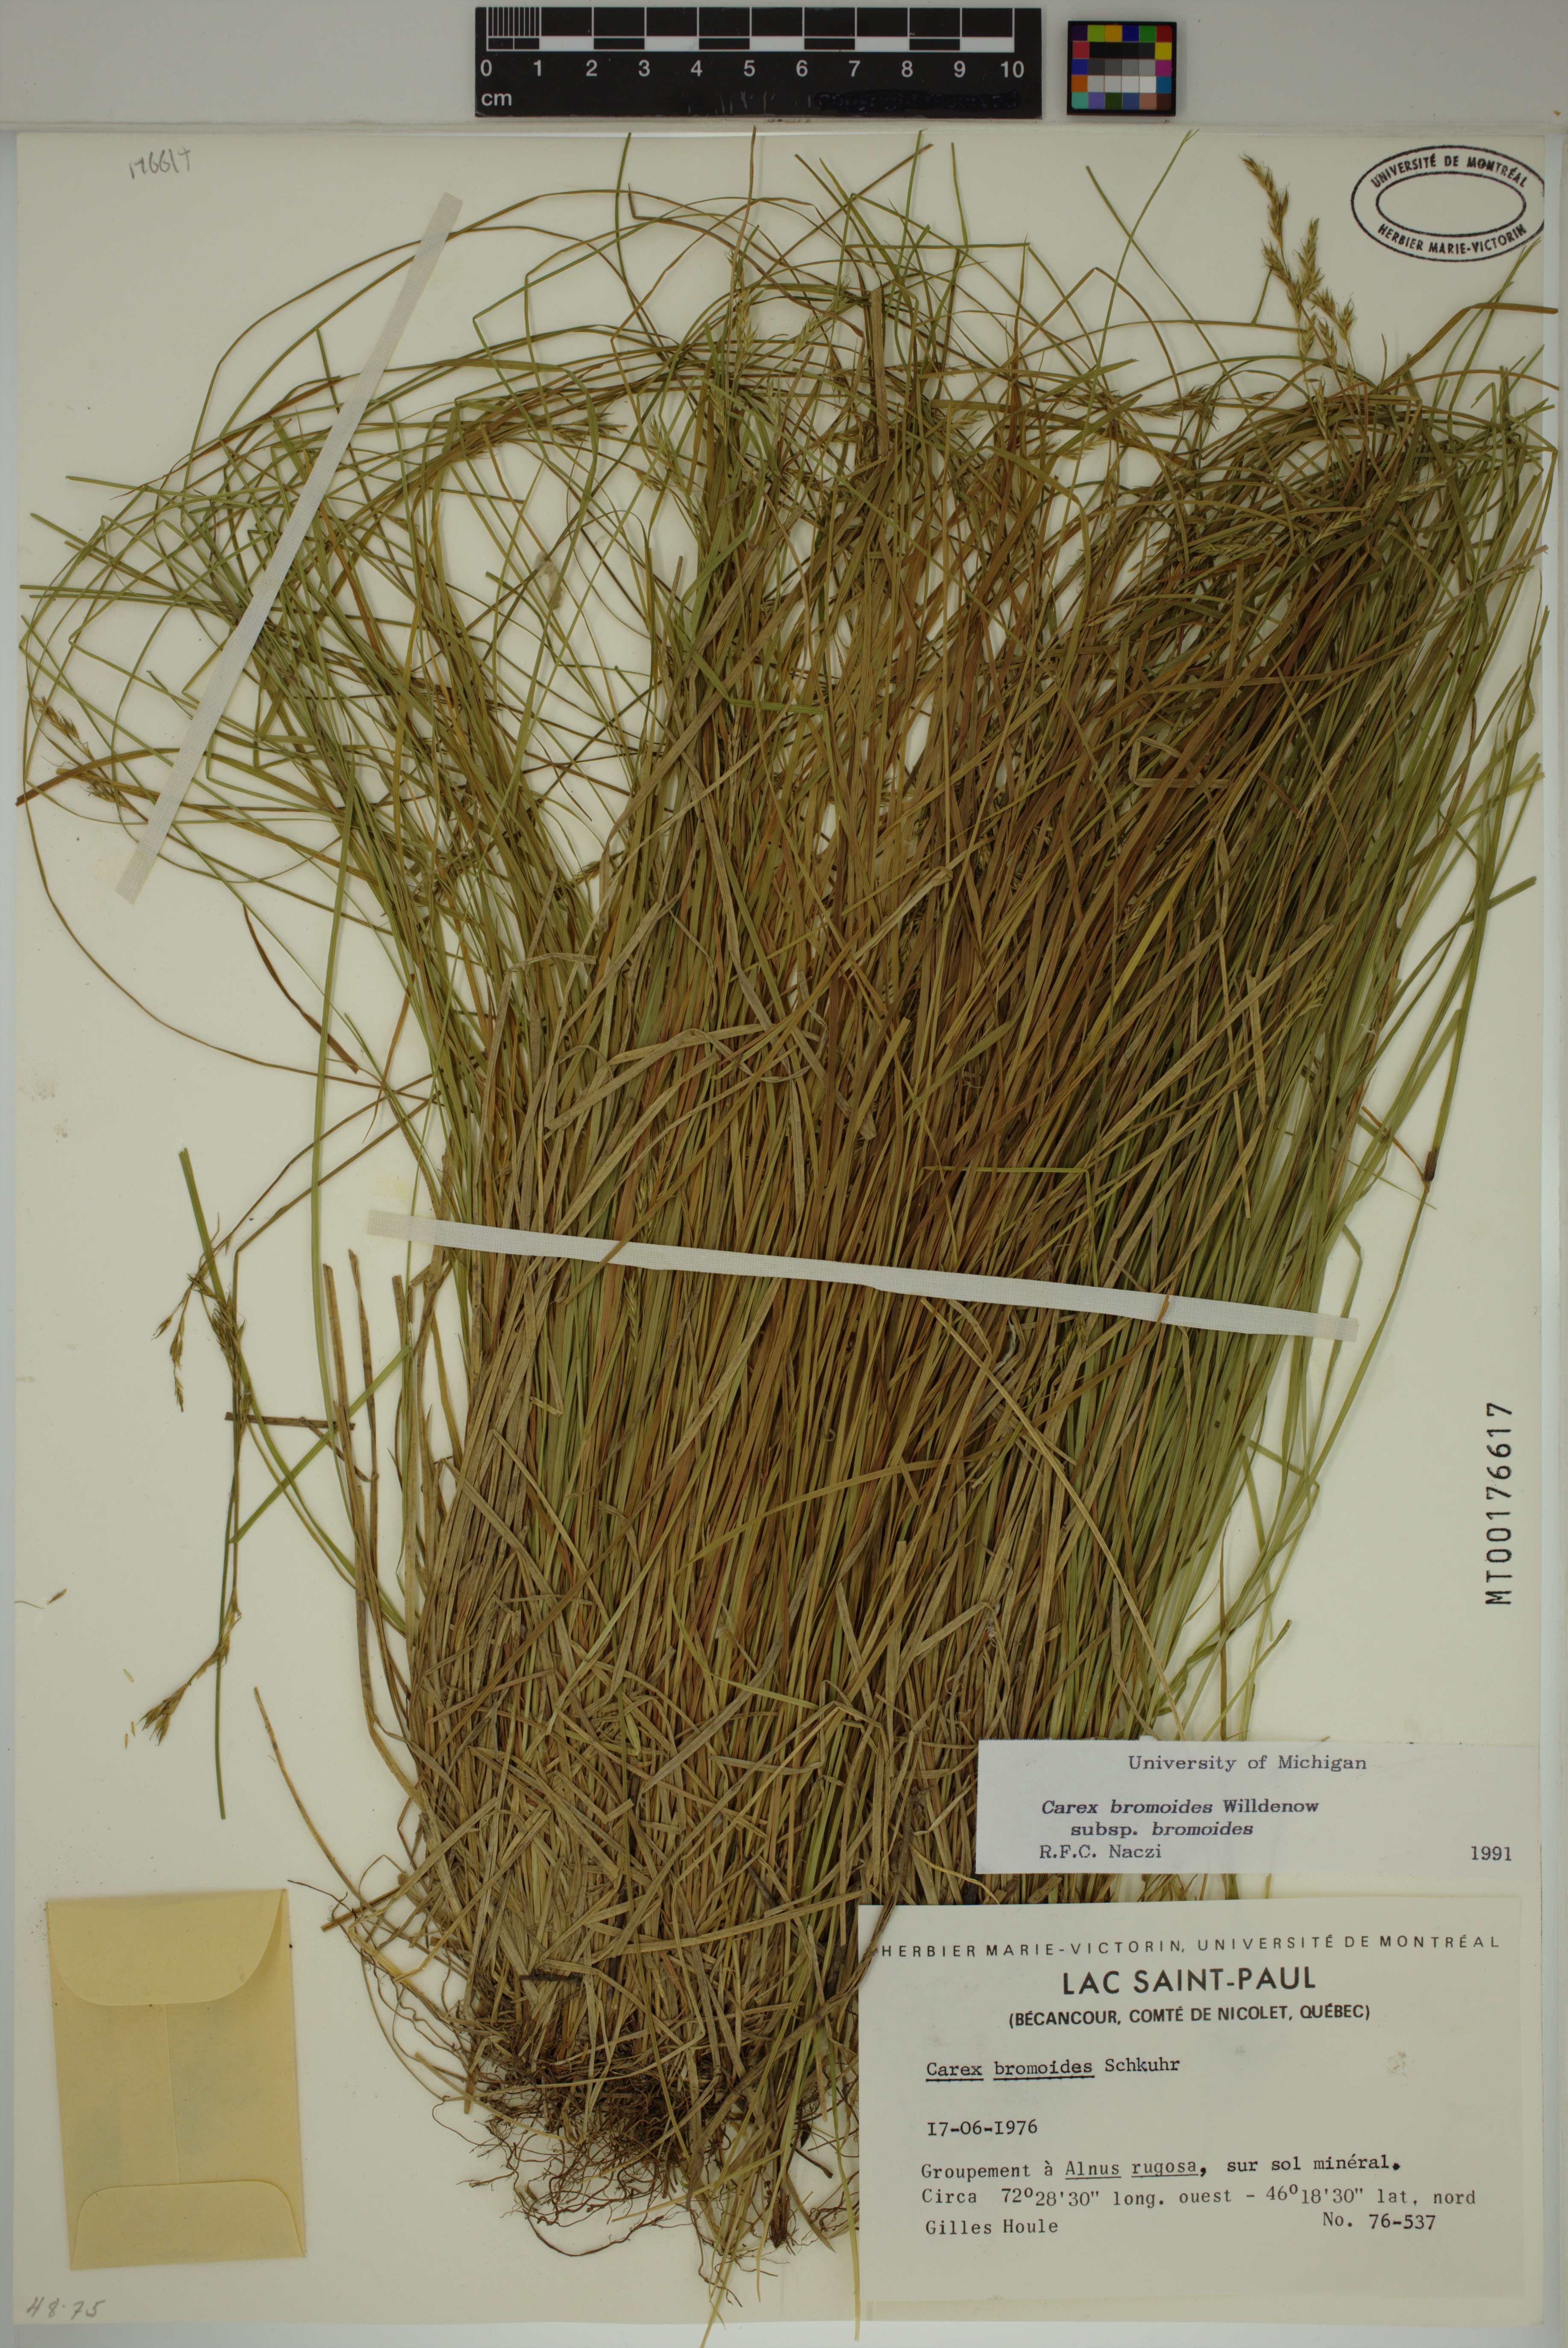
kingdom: Plantae
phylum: Tracheophyta
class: Liliopsida
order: Poales
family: Cyperaceae
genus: Carex
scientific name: Carex bromoides
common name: Brome hummock sedge
